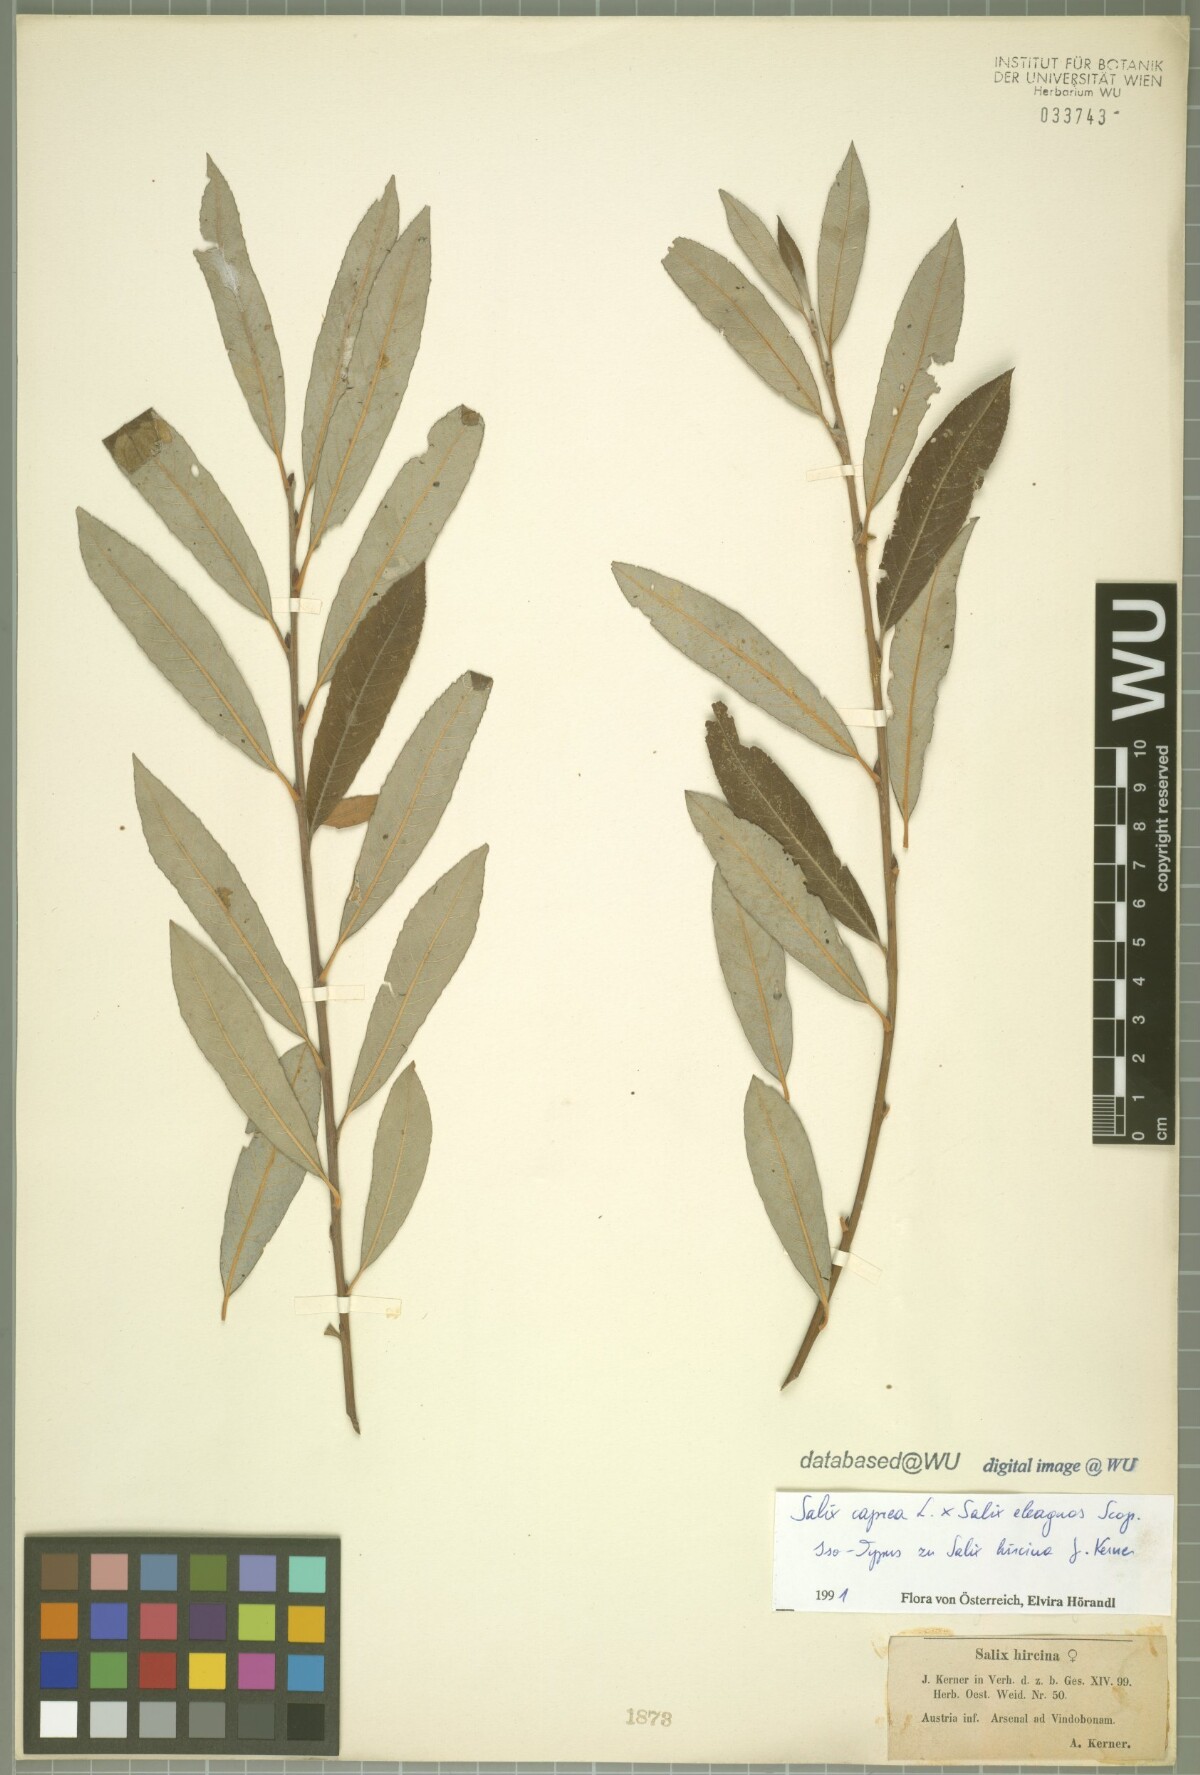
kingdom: Plantae
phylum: Tracheophyta
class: Magnoliopsida
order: Malpighiales
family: Salicaceae
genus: Salix
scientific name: Salix eleagnos
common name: Elaeagnus willow
